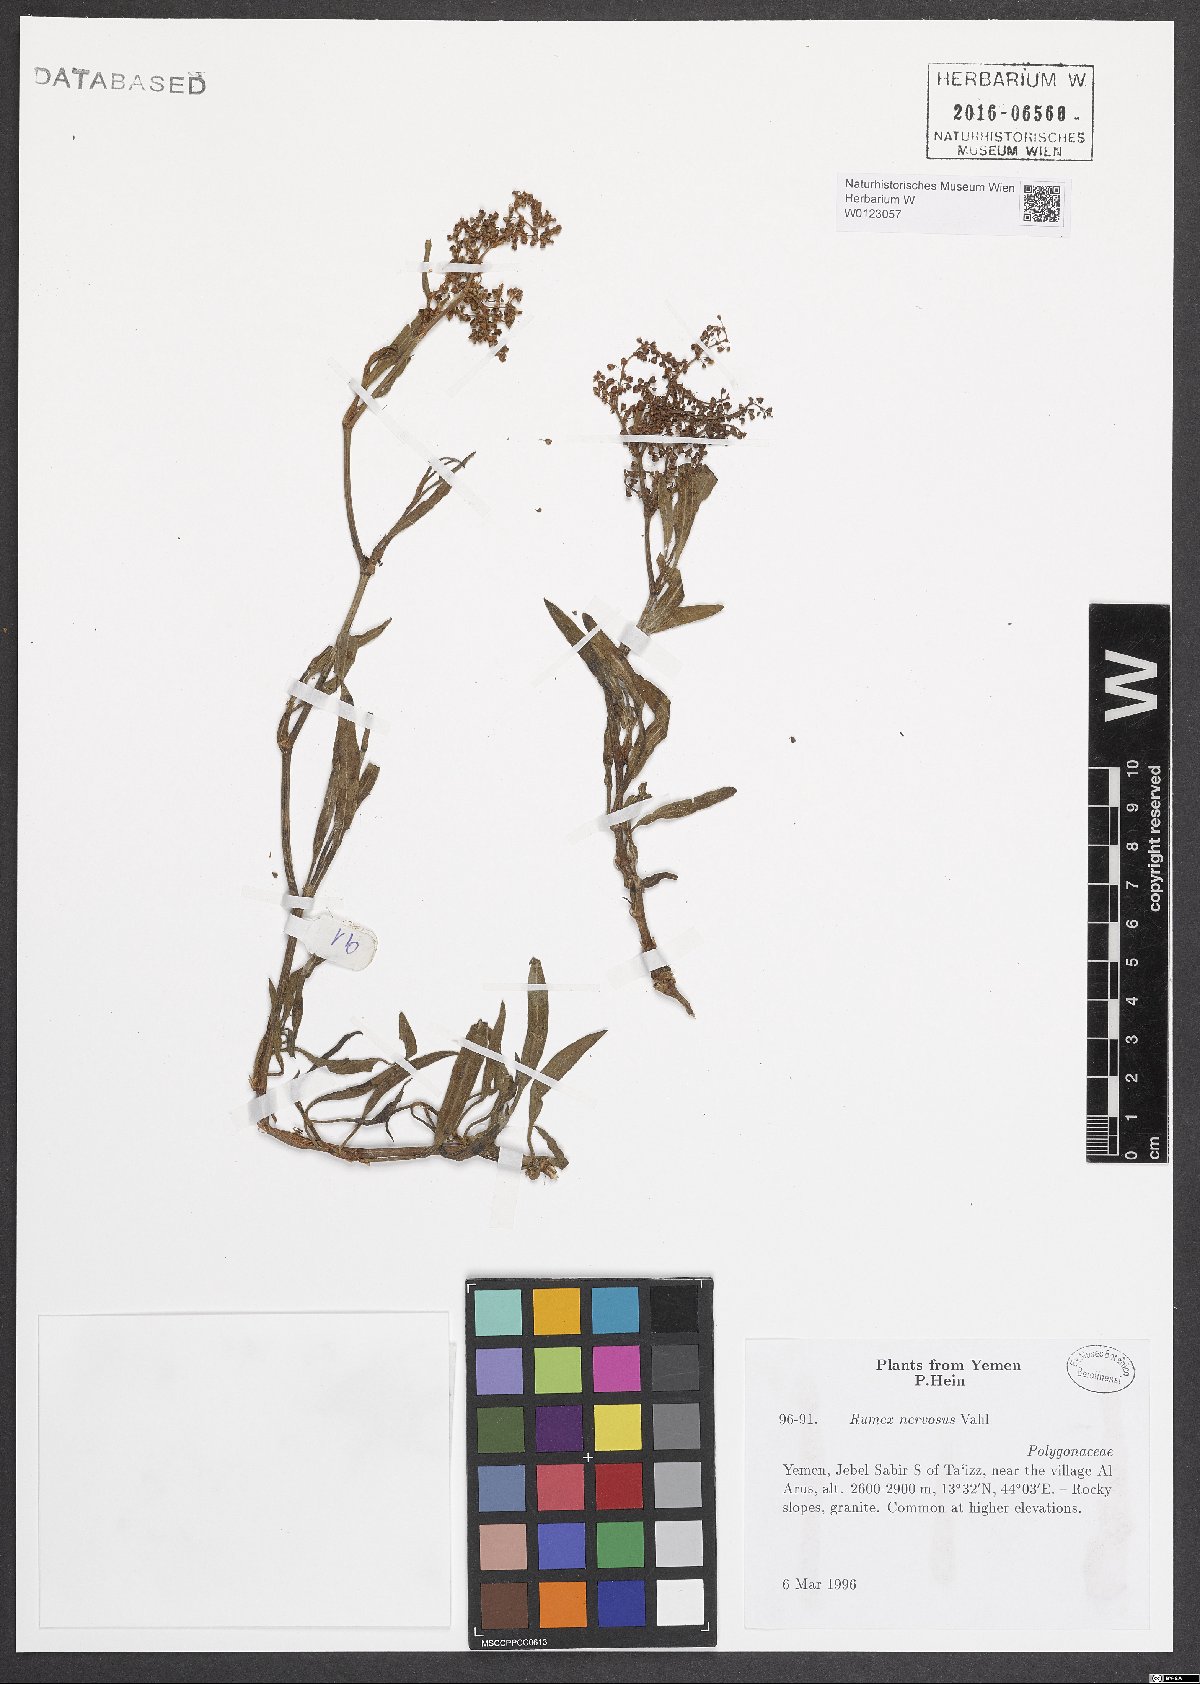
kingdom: Plantae
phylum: Tracheophyta
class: Magnoliopsida
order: Caryophyllales
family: Polygonaceae
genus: Rumex
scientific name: Rumex nervosus
